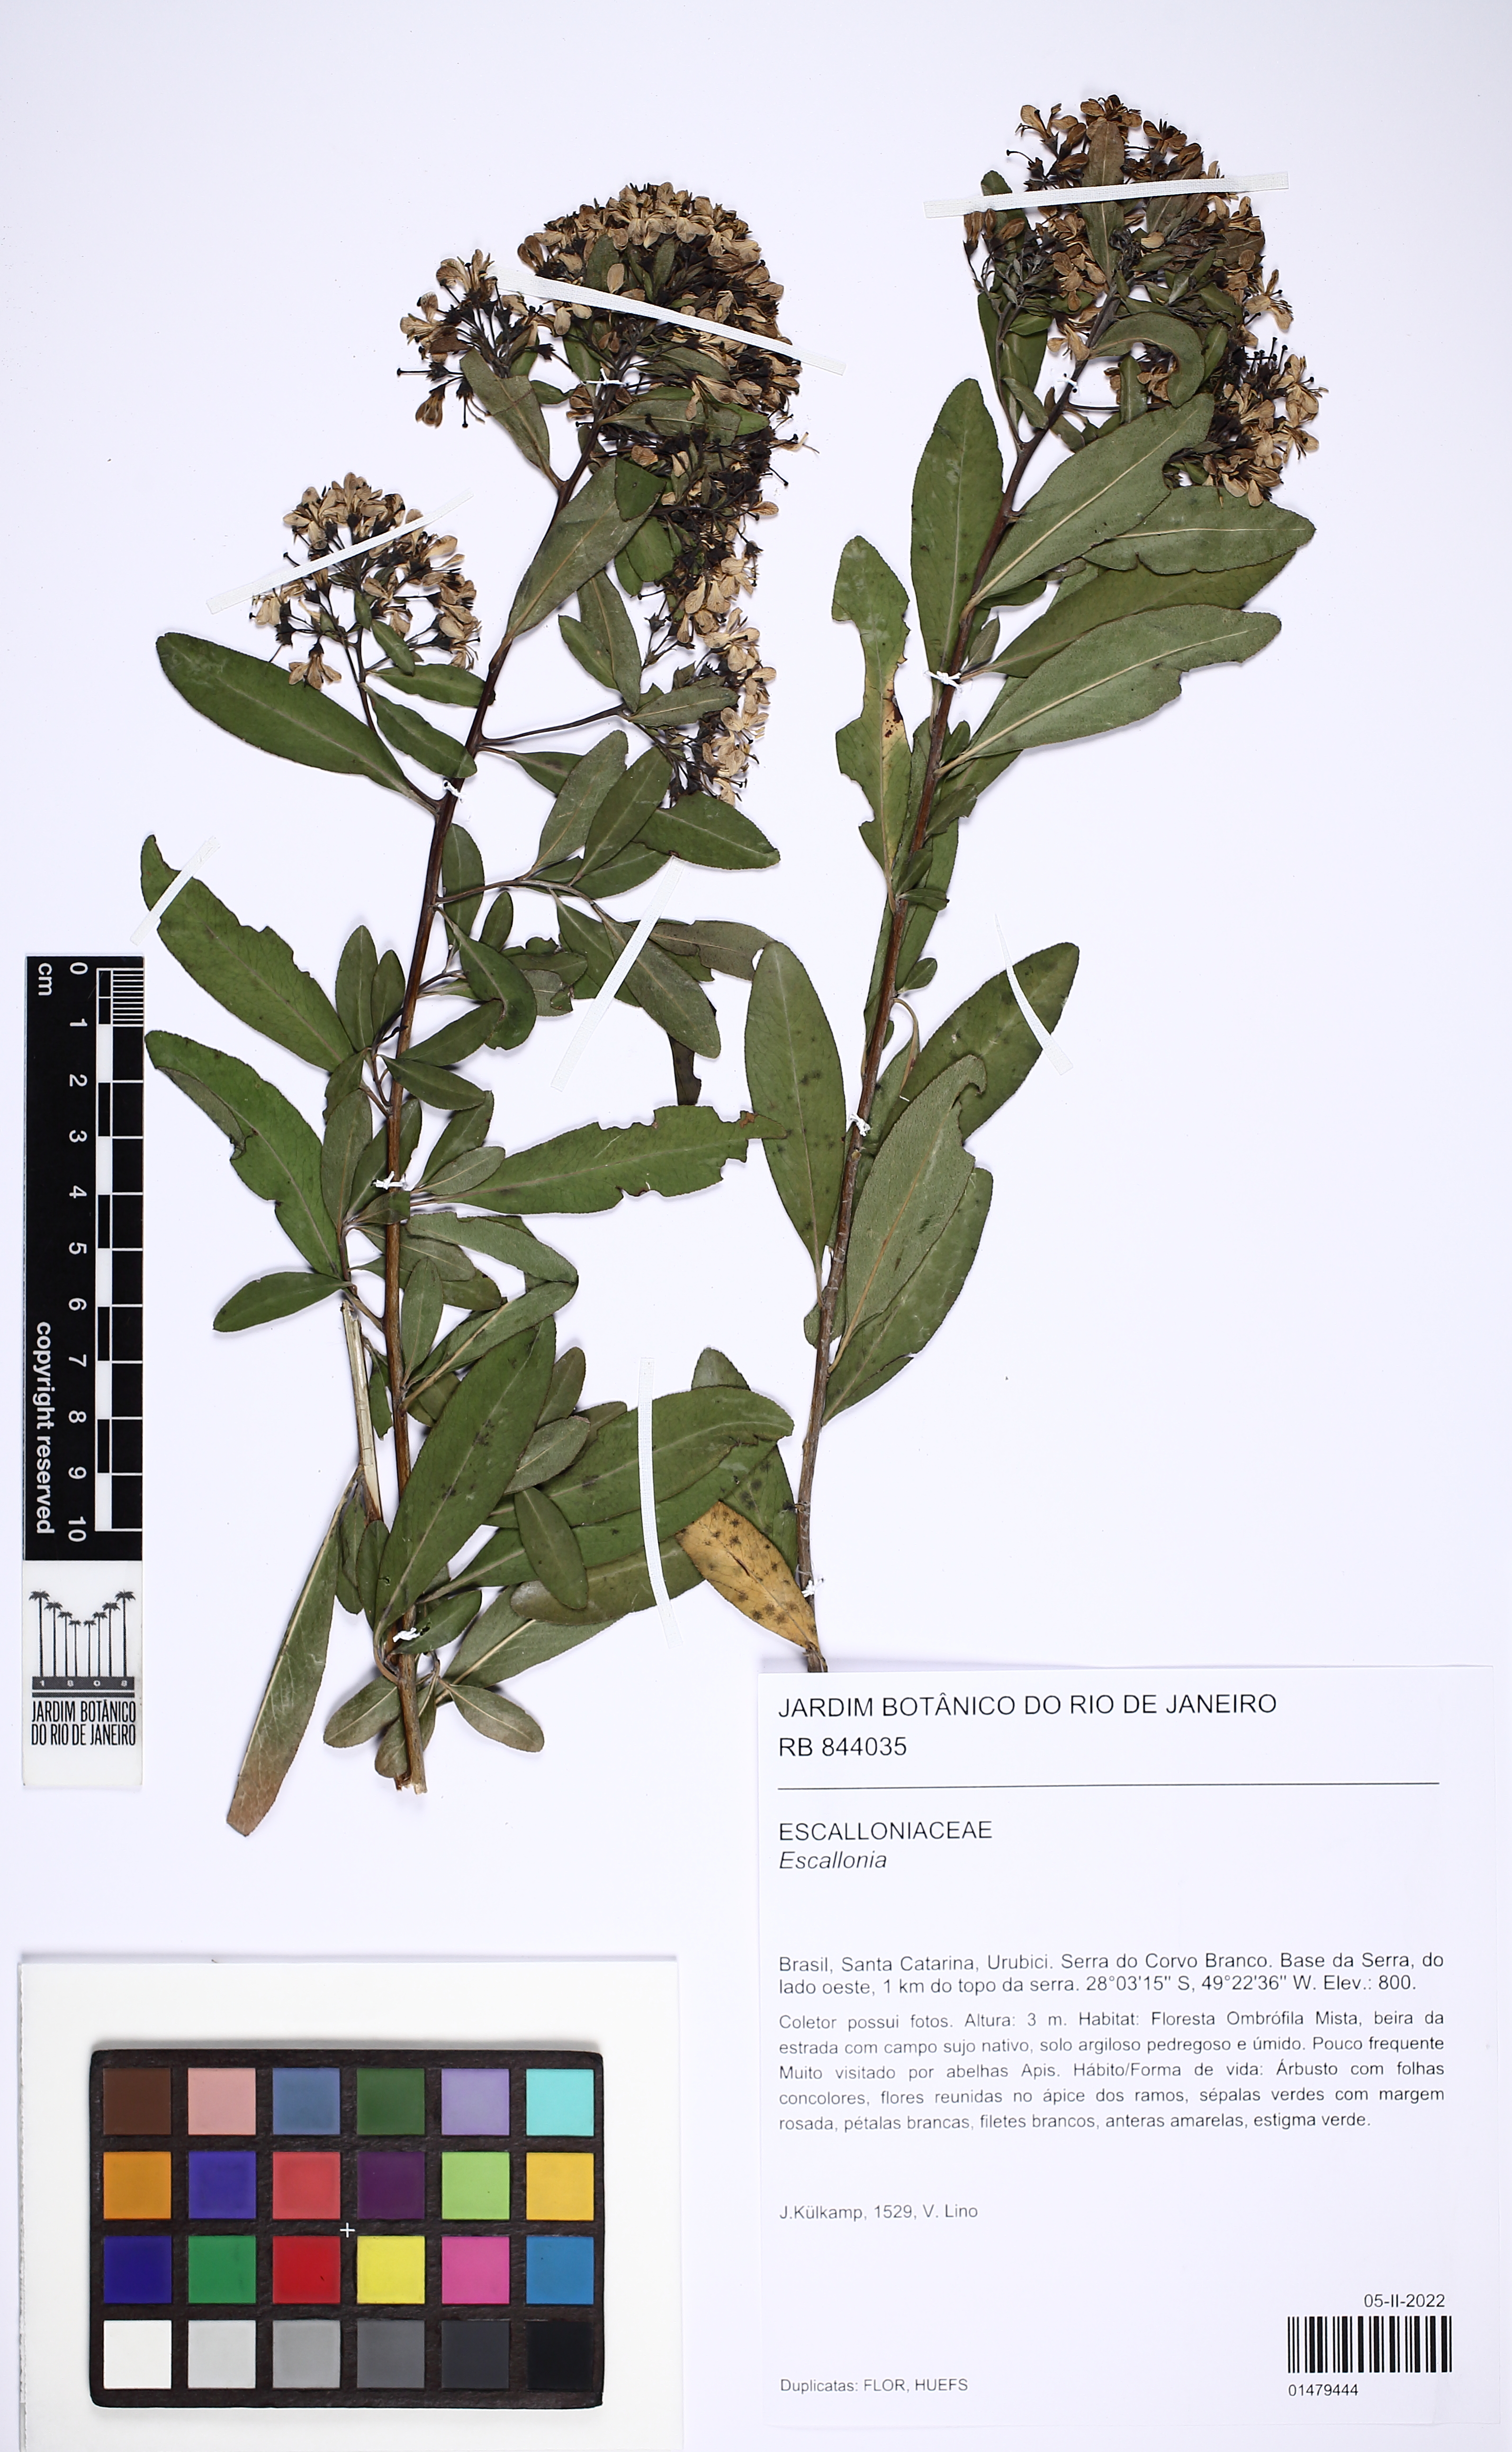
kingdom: Plantae
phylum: Tracheophyta
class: Magnoliopsida
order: Escalloniales
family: Escalloniaceae
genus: Escallonia
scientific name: Escallonia
